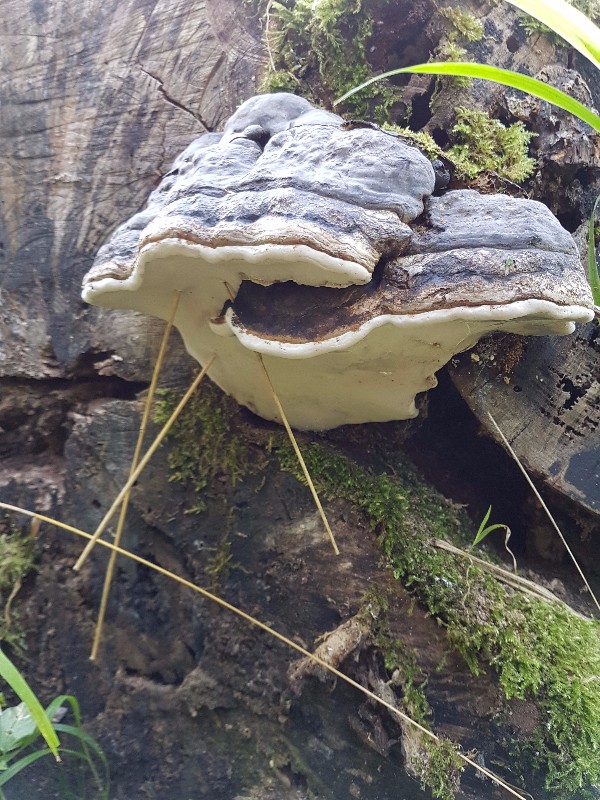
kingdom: Fungi
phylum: Basidiomycota
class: Agaricomycetes
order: Polyporales
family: Polyporaceae
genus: Fomes
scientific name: Fomes fomentarius
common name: tøndersvamp
